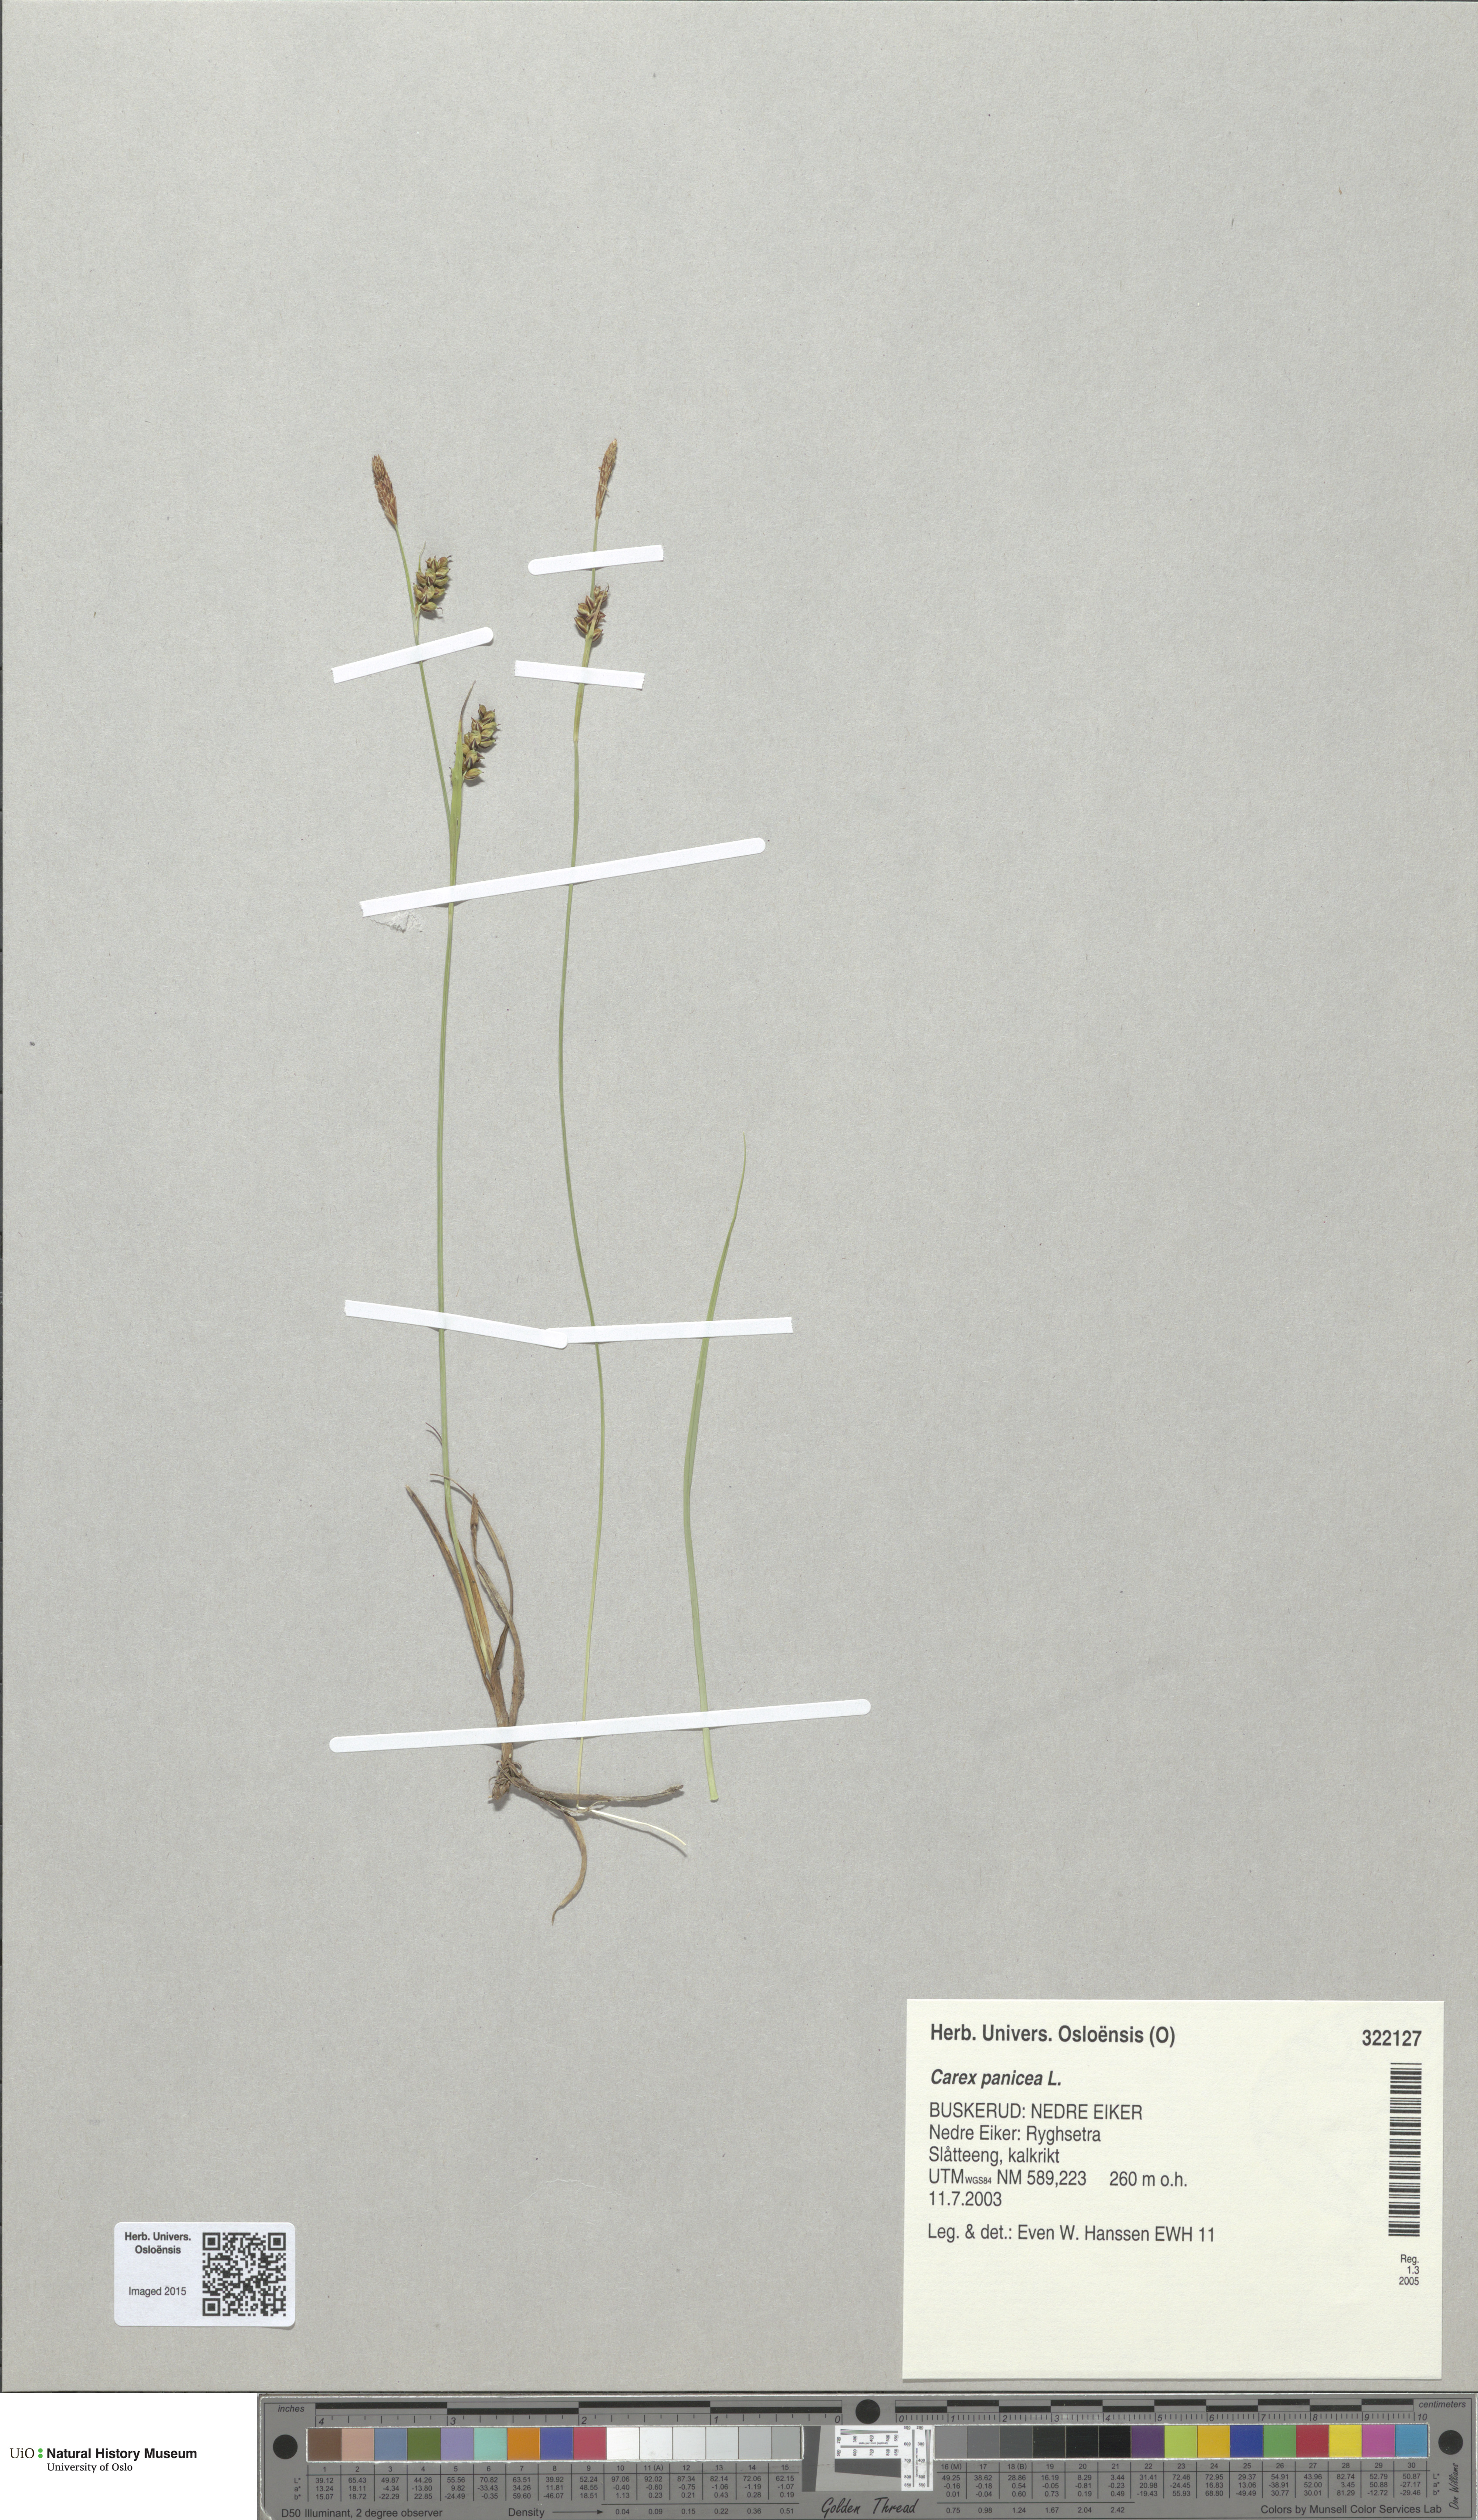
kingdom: Plantae
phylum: Tracheophyta
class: Liliopsida
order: Poales
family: Cyperaceae
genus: Carex
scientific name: Carex panicea
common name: Carnation sedge
